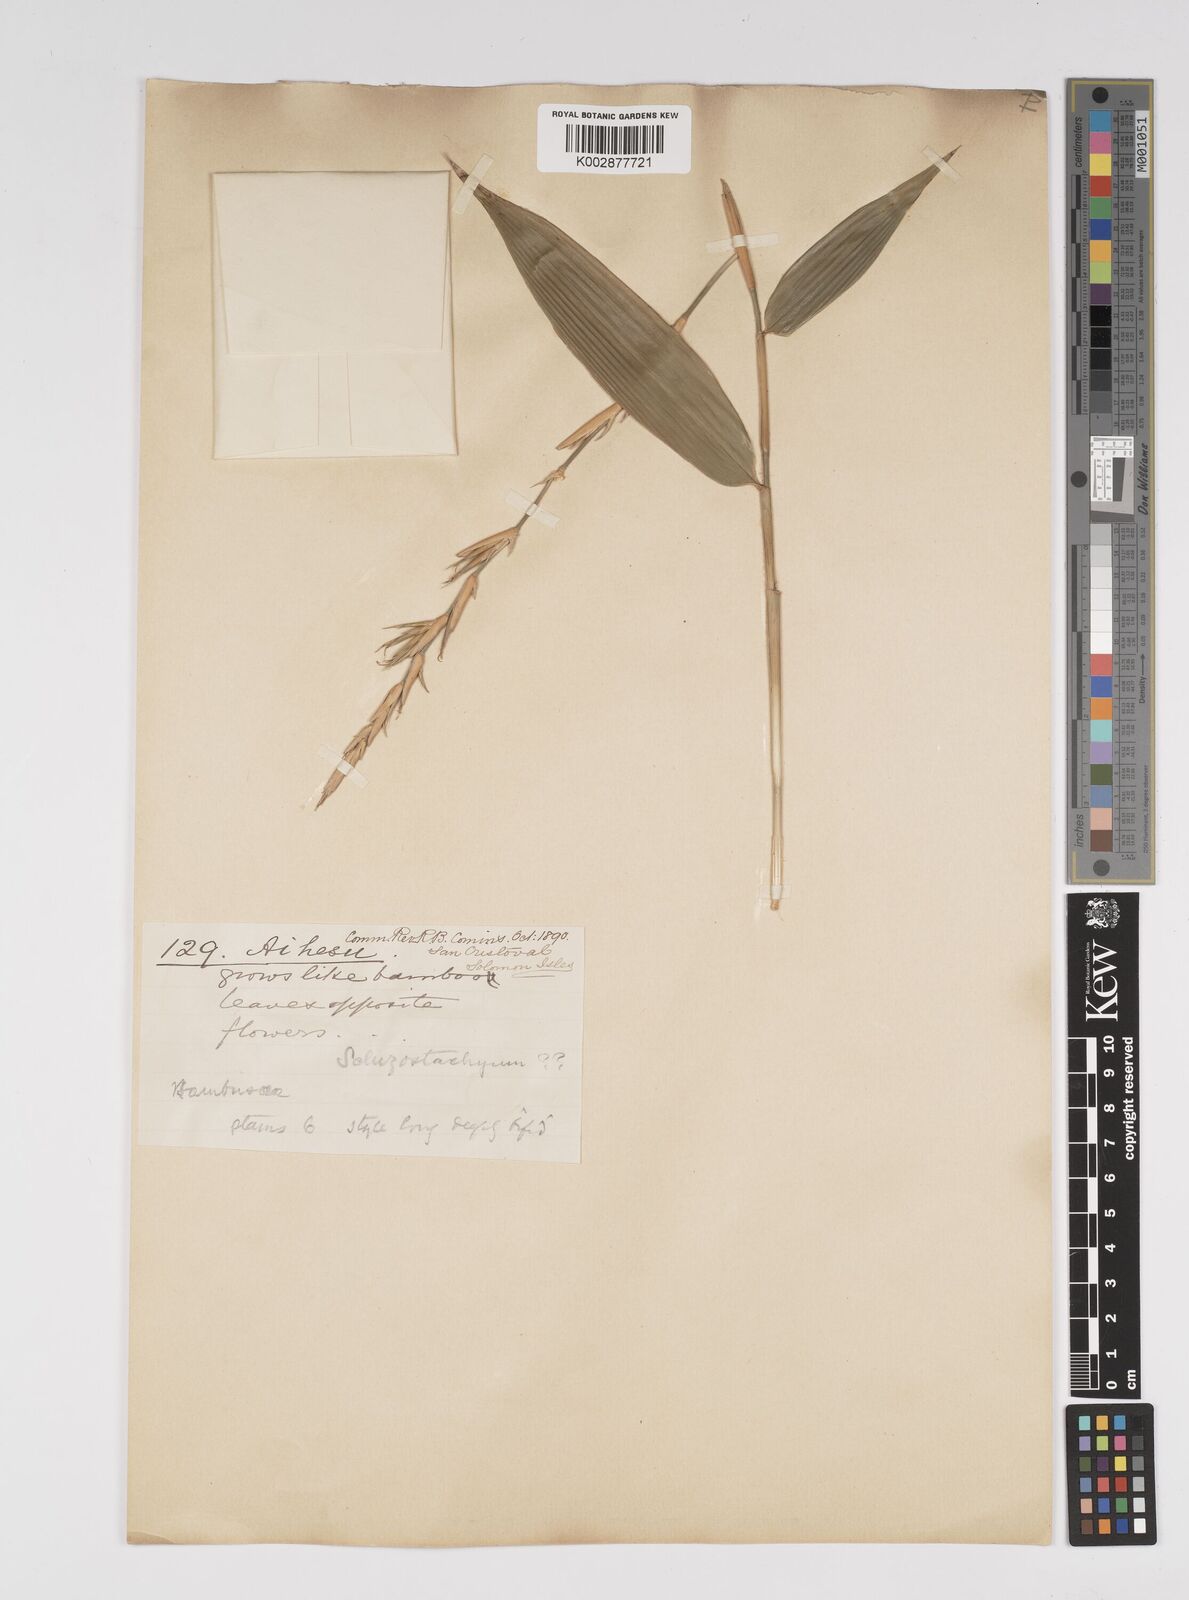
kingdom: Plantae
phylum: Tracheophyta
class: Liliopsida
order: Poales
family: Poaceae
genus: Bambusa
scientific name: Bambusa solomonensis
